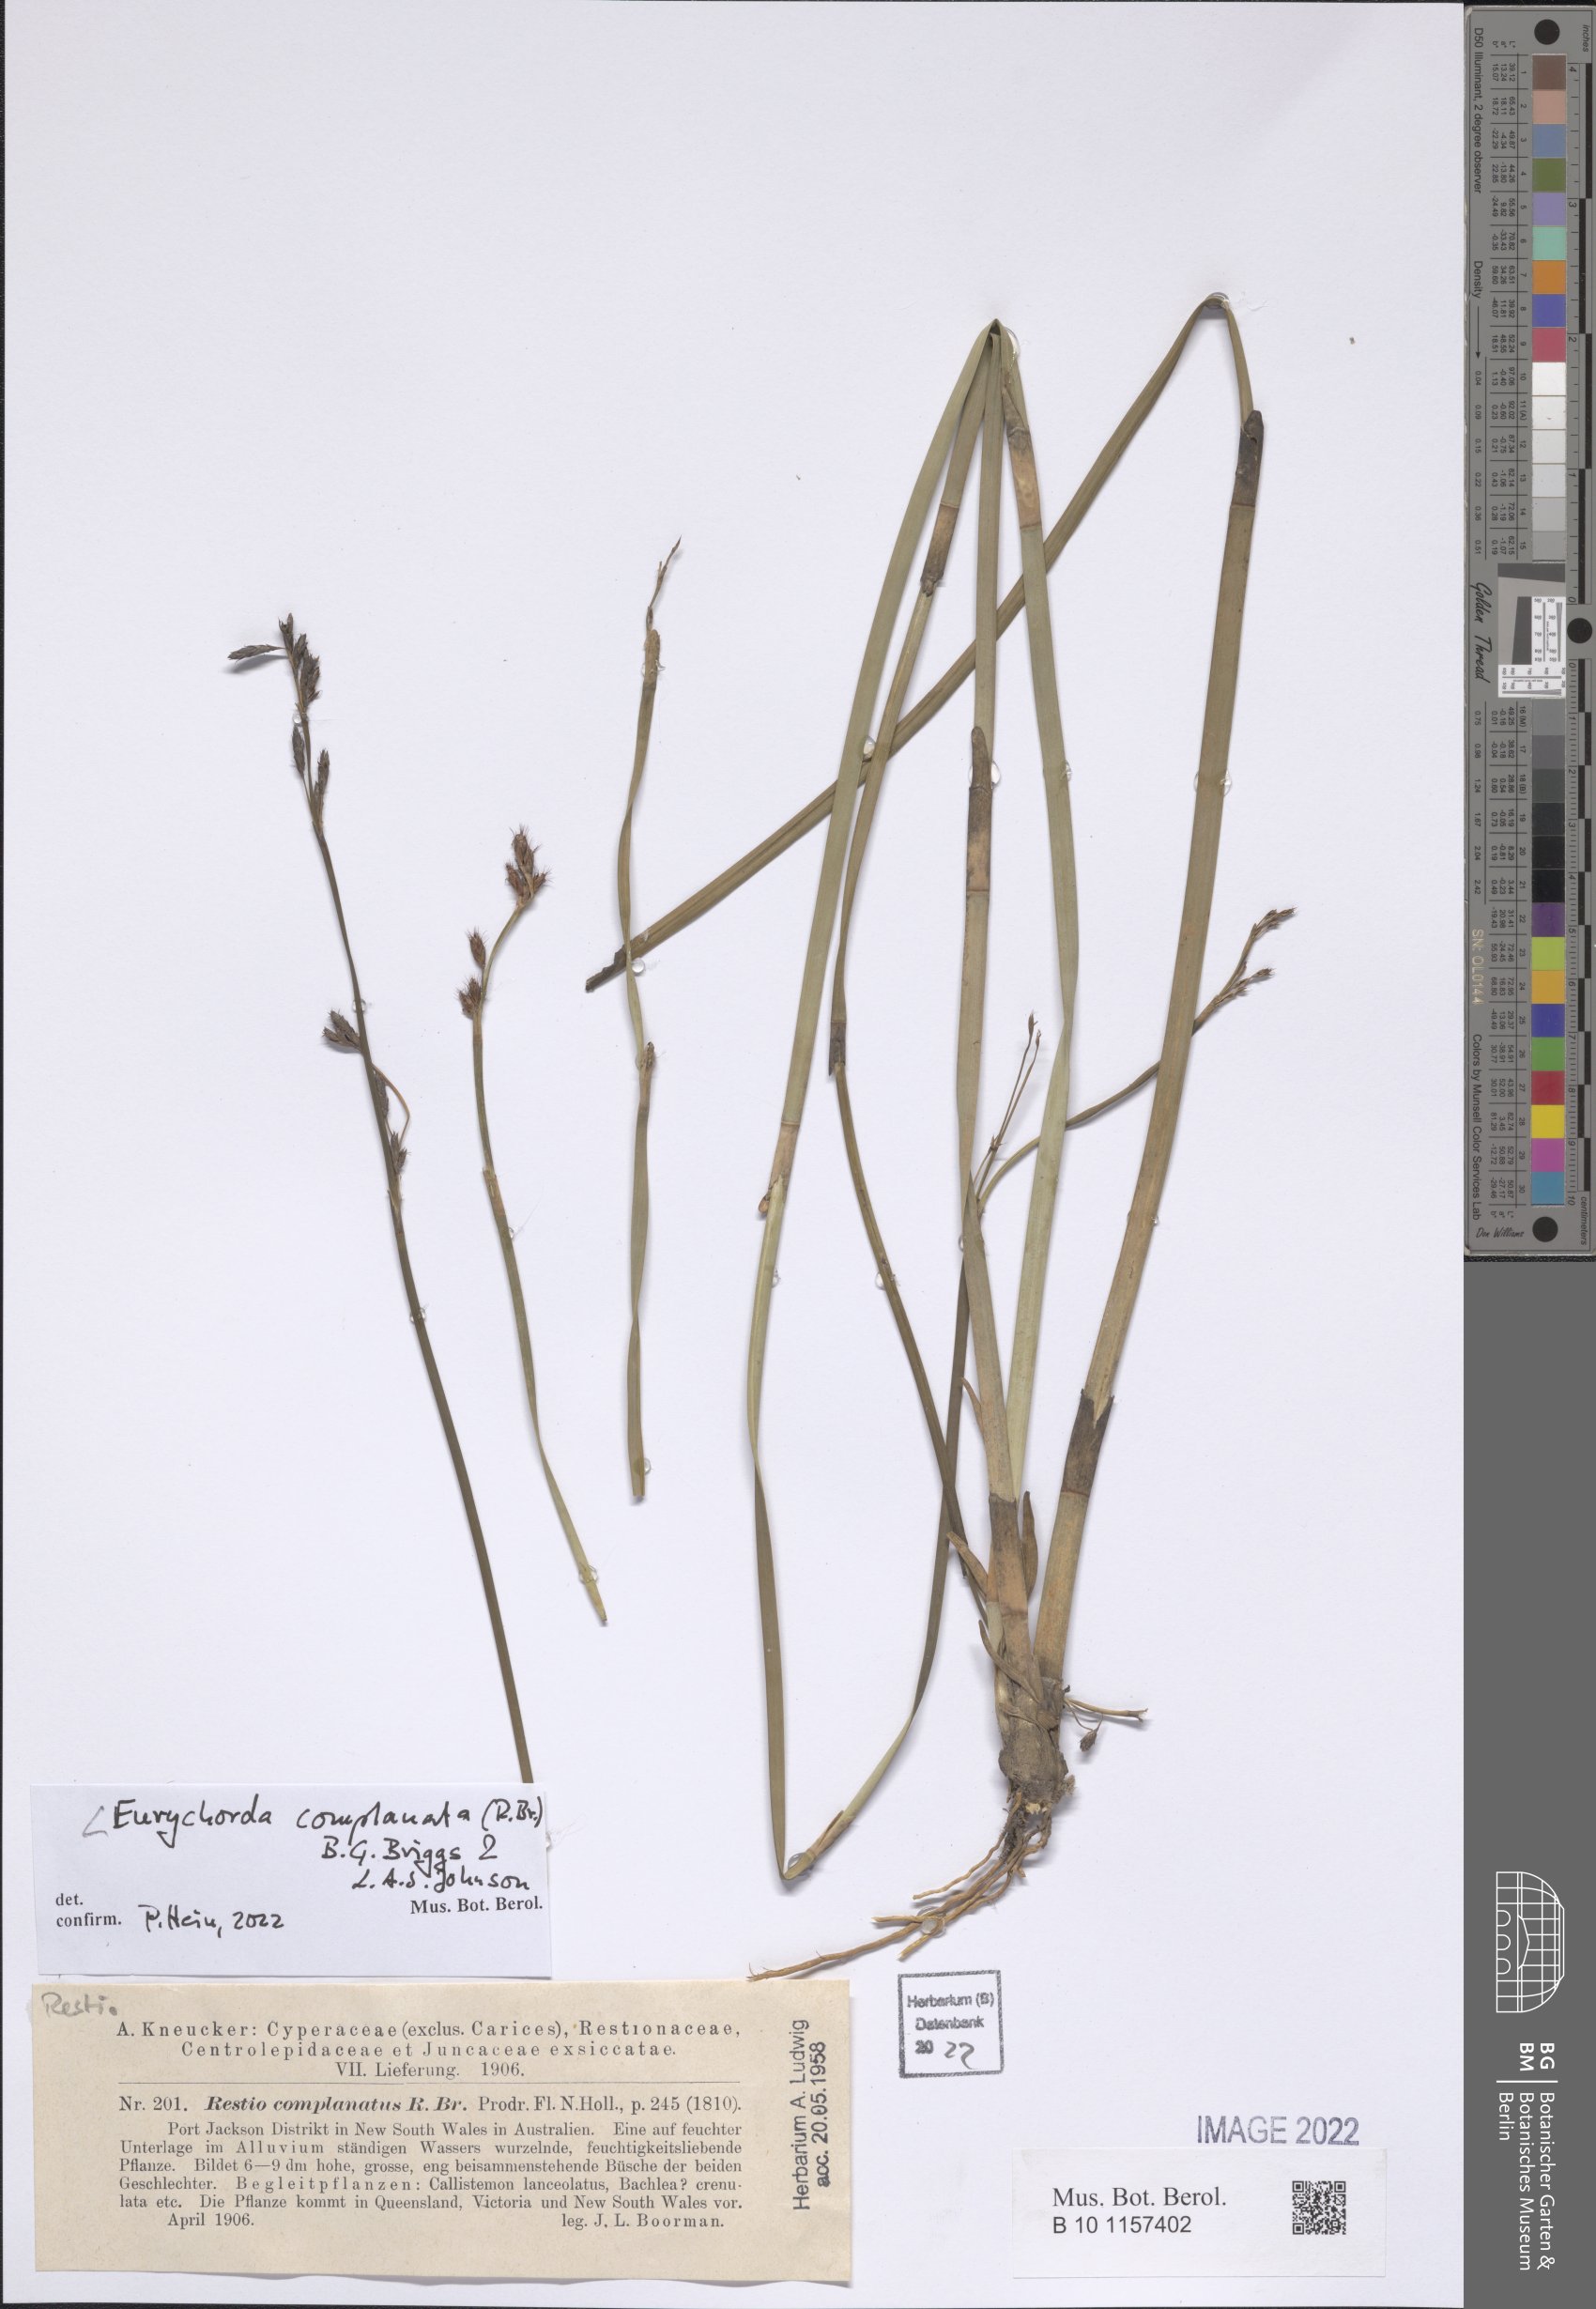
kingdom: Plantae
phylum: Tracheophyta
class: Liliopsida
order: Poales
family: Restionaceae
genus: Eurychorda
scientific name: Eurychorda complanata
